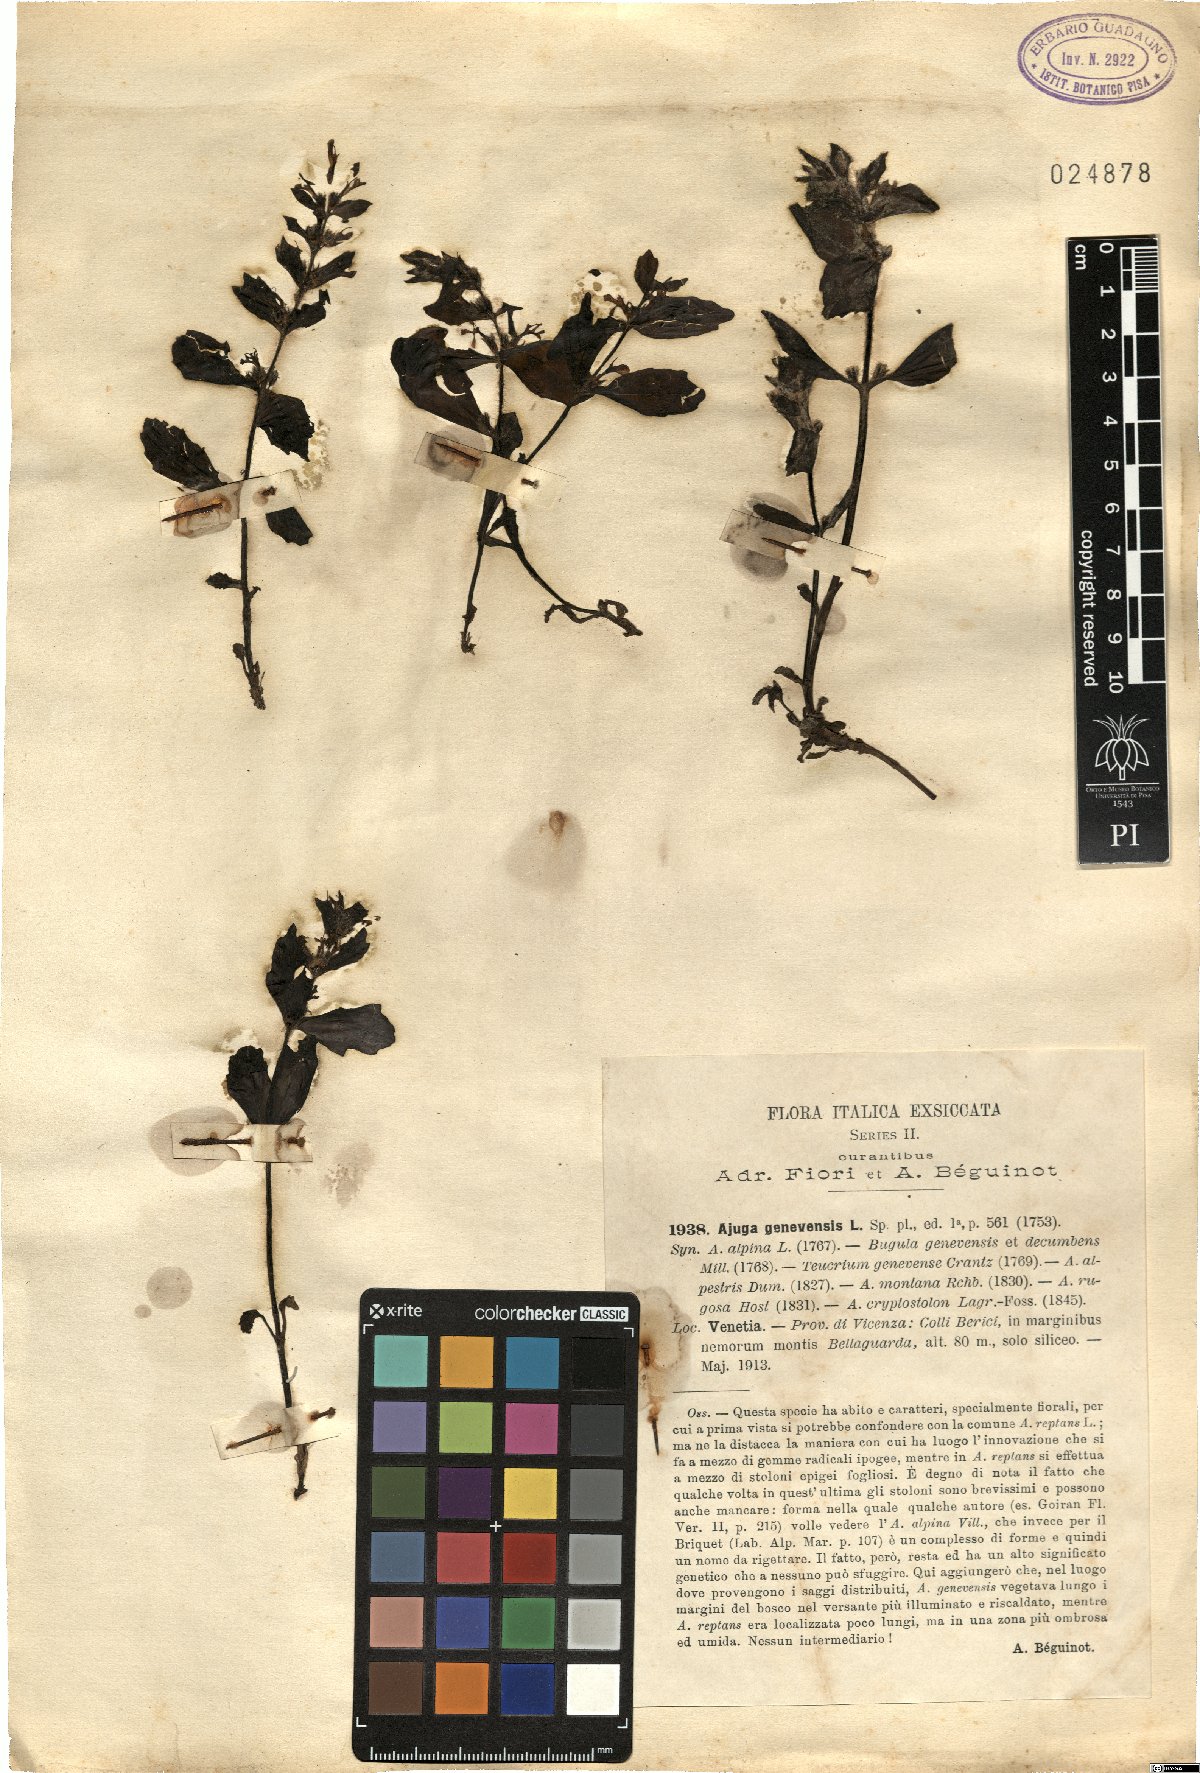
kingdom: Plantae
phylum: Tracheophyta
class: Magnoliopsida
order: Lamiales
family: Lamiaceae
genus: Ajuga
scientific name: Ajuga genevensis
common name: Blue bugle
